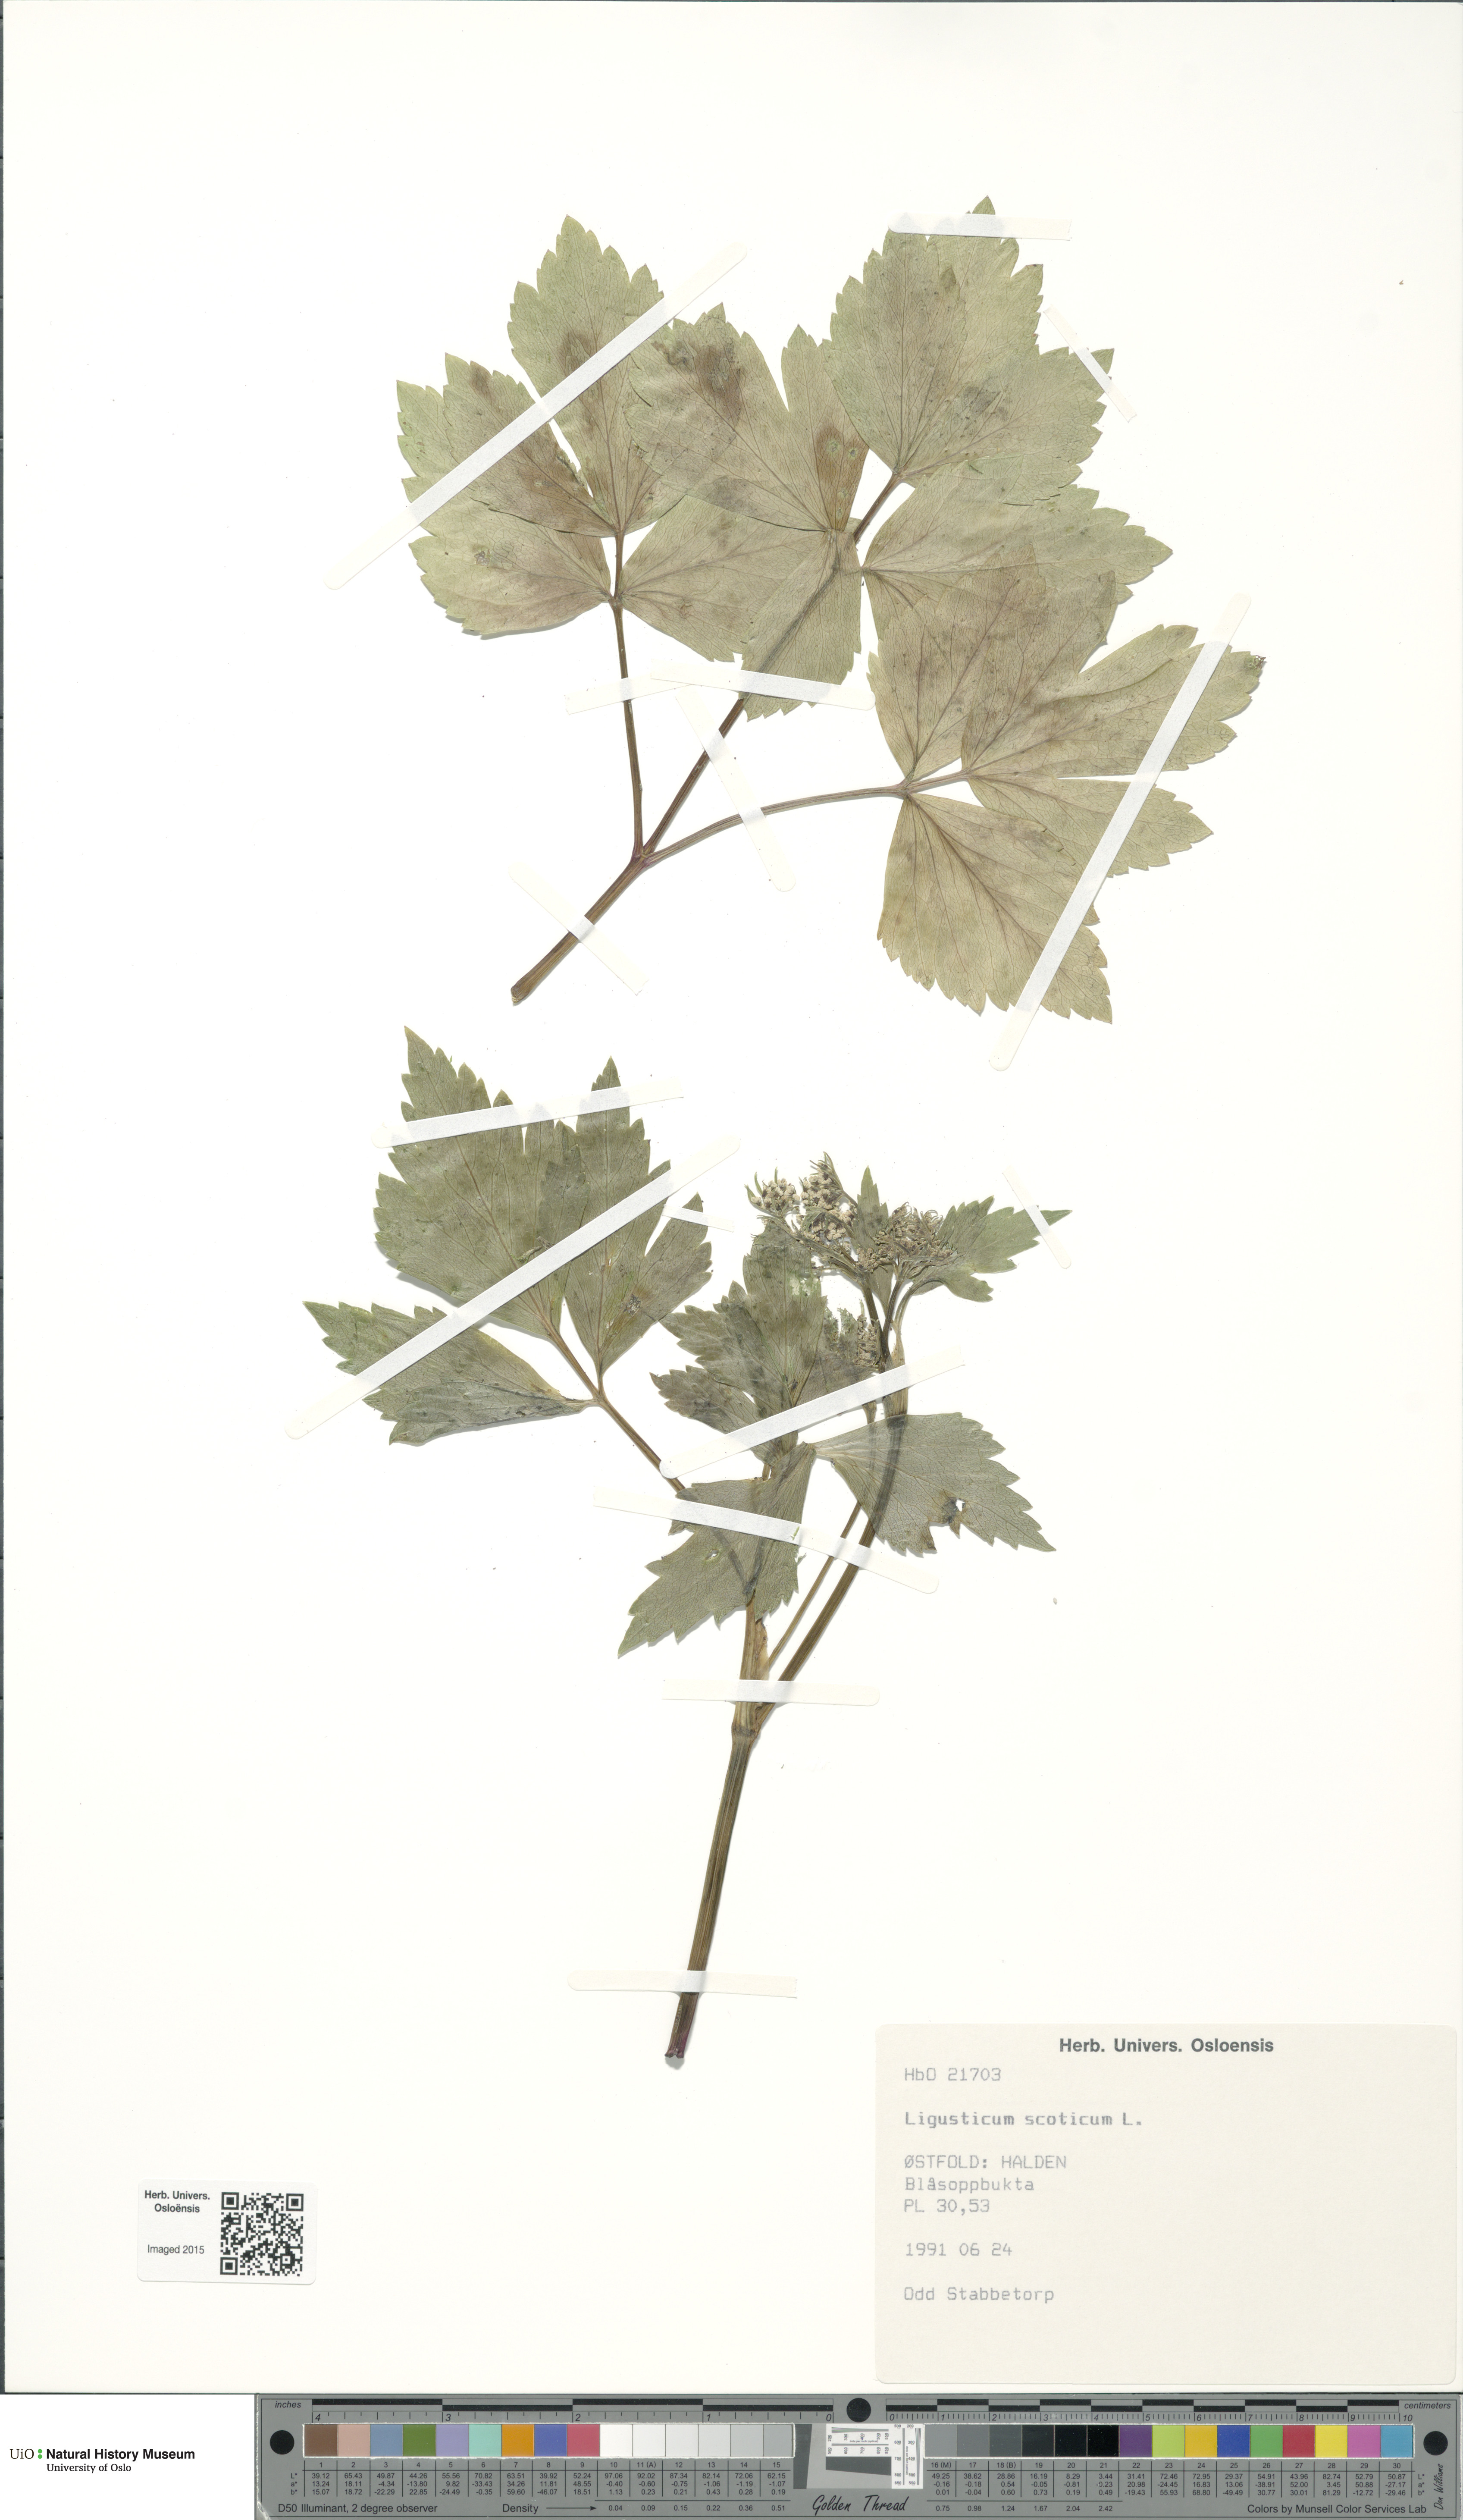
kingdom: Plantae
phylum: Tracheophyta
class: Magnoliopsida
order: Apiales
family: Apiaceae
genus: Ligusticum
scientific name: Ligusticum scothicum
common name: Beach lovage
